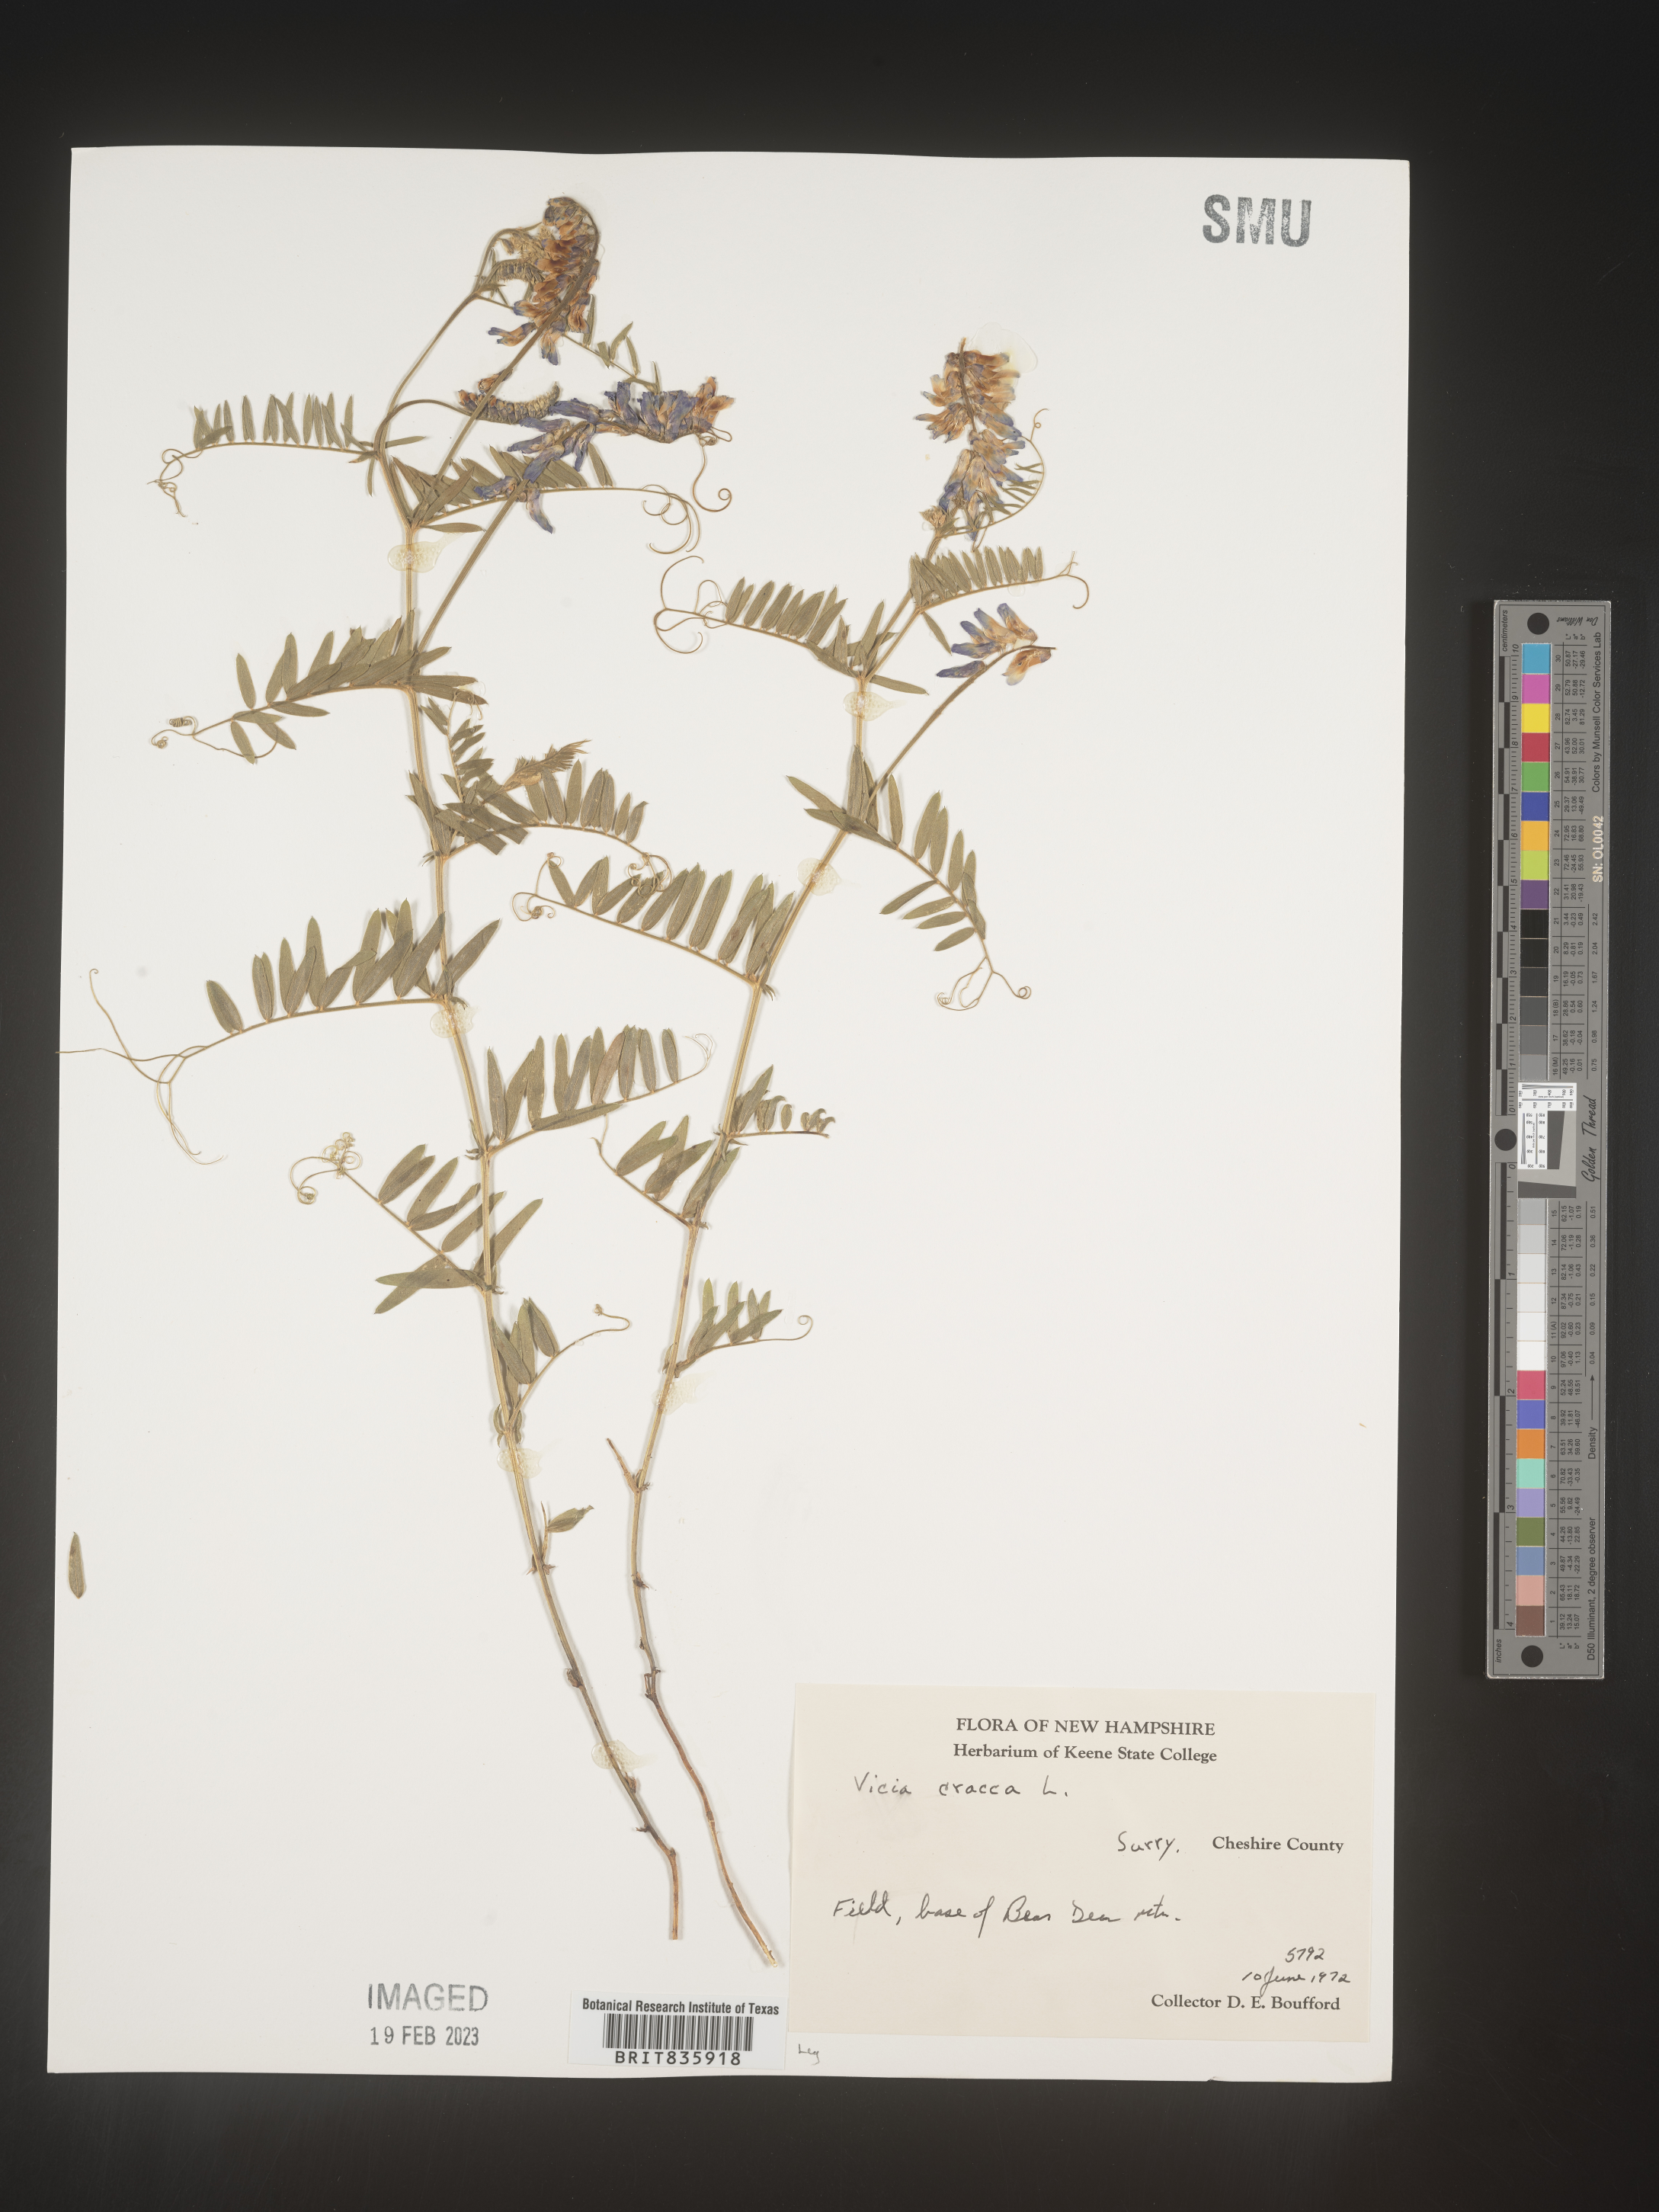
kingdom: Plantae
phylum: Tracheophyta
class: Magnoliopsida
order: Fabales
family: Fabaceae
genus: Vicia
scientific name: Vicia cracca
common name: Bird vetch
